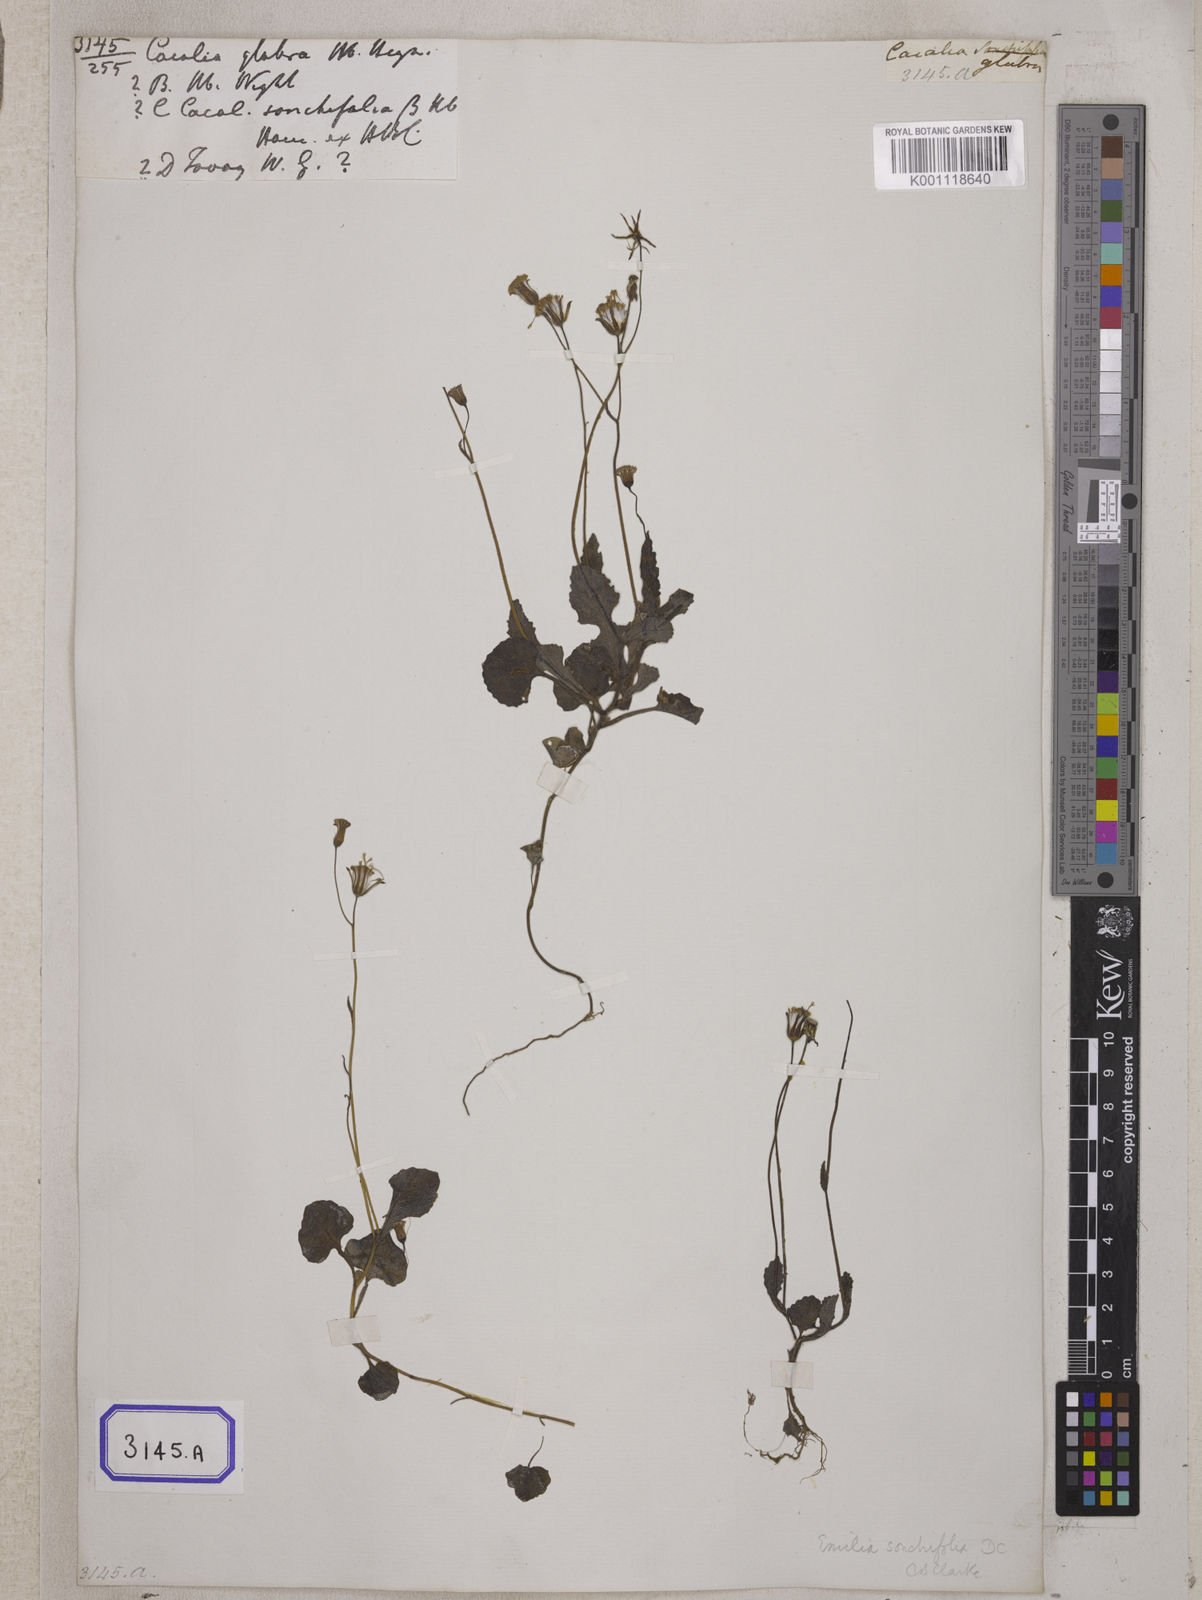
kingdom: Plantae
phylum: Tracheophyta
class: Magnoliopsida
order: Asterales
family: Asteraceae
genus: Emilia
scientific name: Emilia sonchifolia
